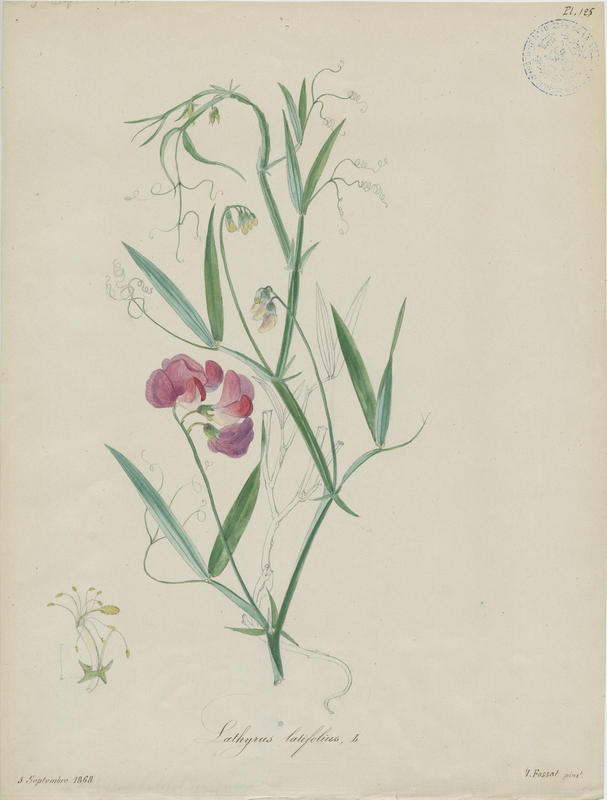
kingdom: Plantae
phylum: Tracheophyta
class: Magnoliopsida
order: Fabales
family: Fabaceae
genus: Lathyrus
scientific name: Lathyrus latifolius
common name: Perennial pea
